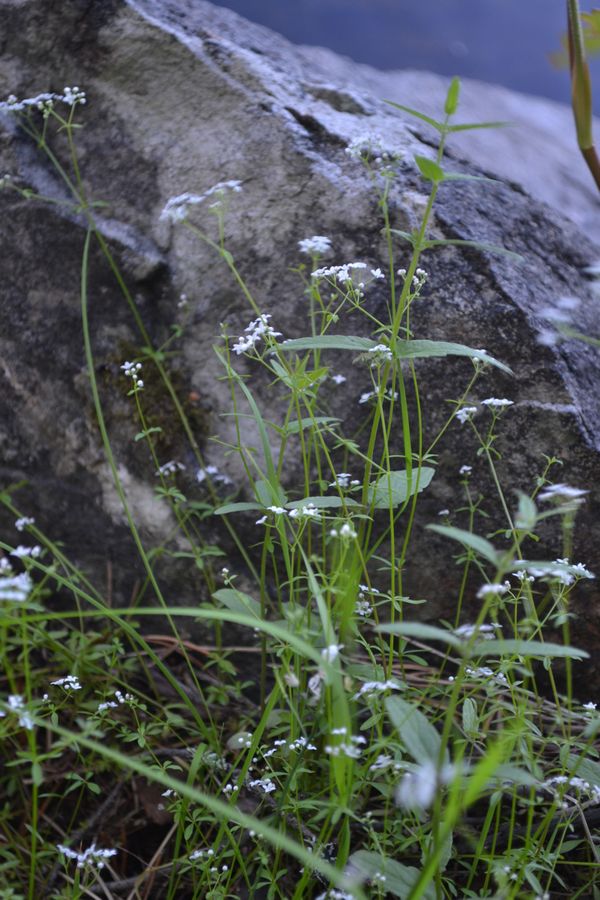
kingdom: Plantae
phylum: Tracheophyta
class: Magnoliopsida
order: Boraginales
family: Boraginaceae
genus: Myosotis
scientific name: Myosotis laxa
